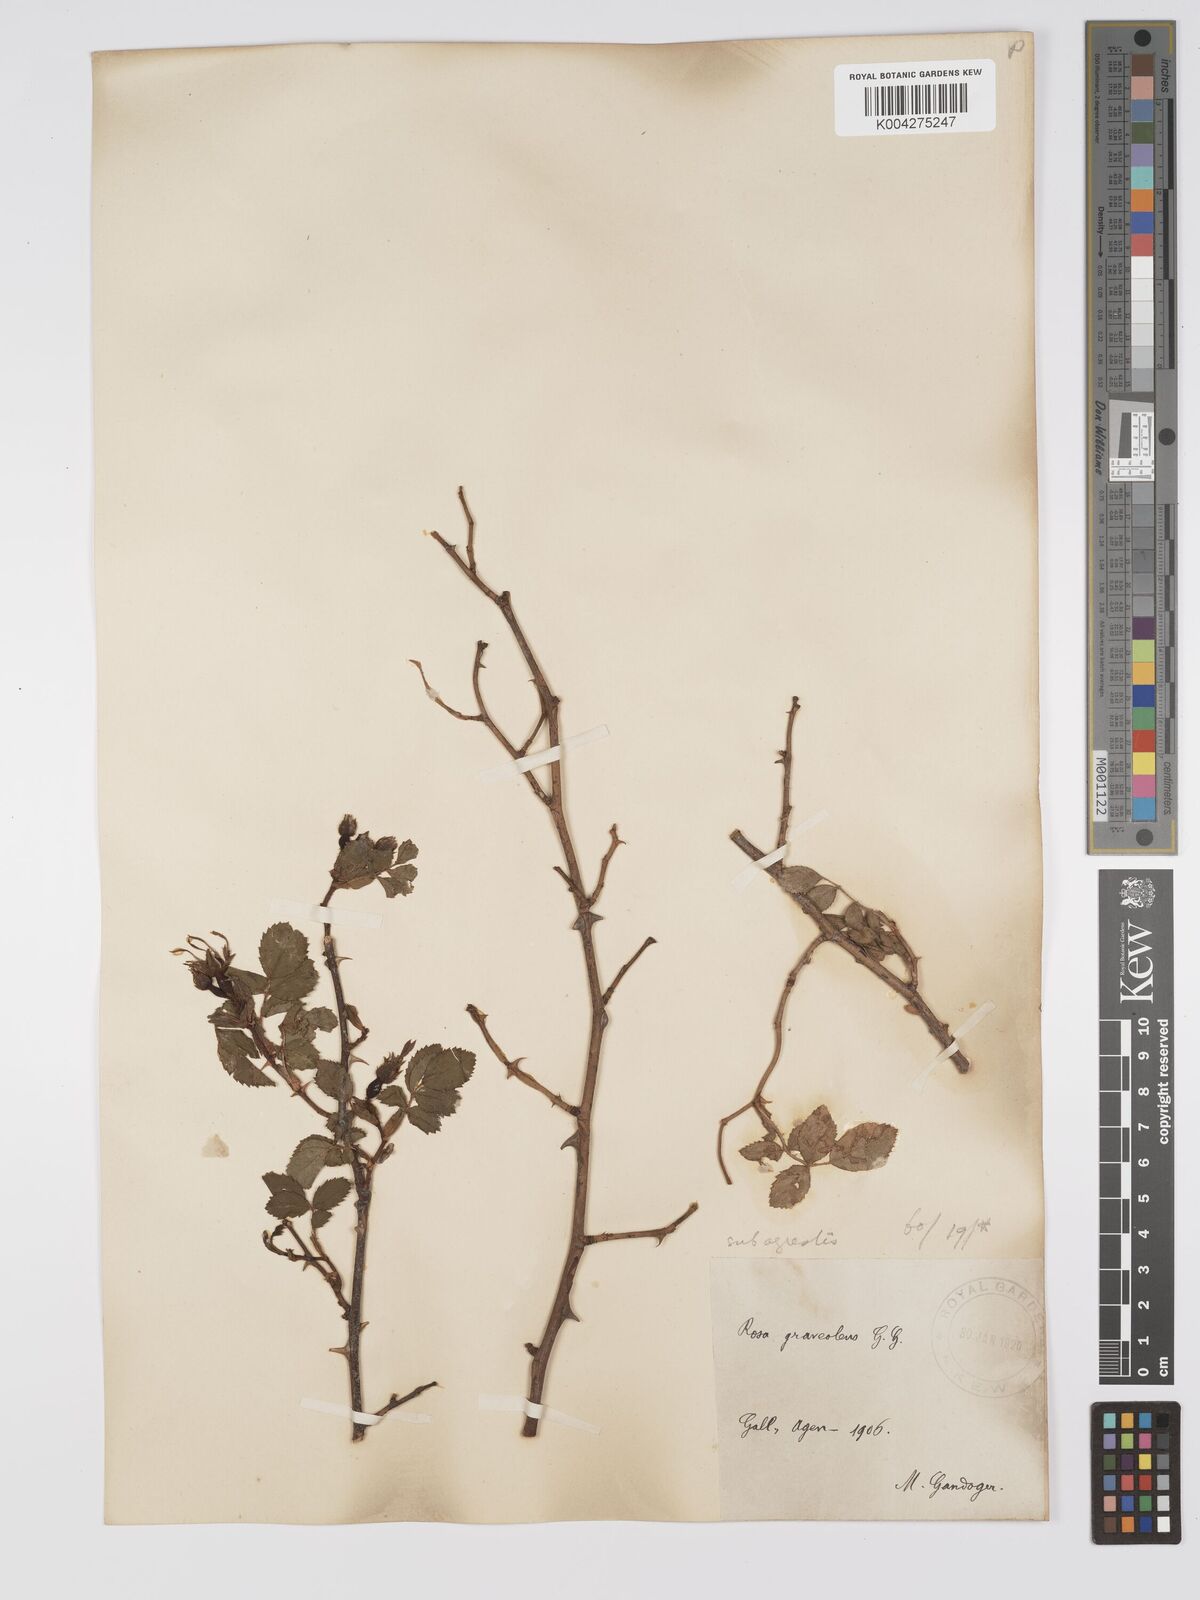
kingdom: Plantae
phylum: Tracheophyta
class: Magnoliopsida
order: Rosales
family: Rosaceae
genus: Rosa
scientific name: Rosa
